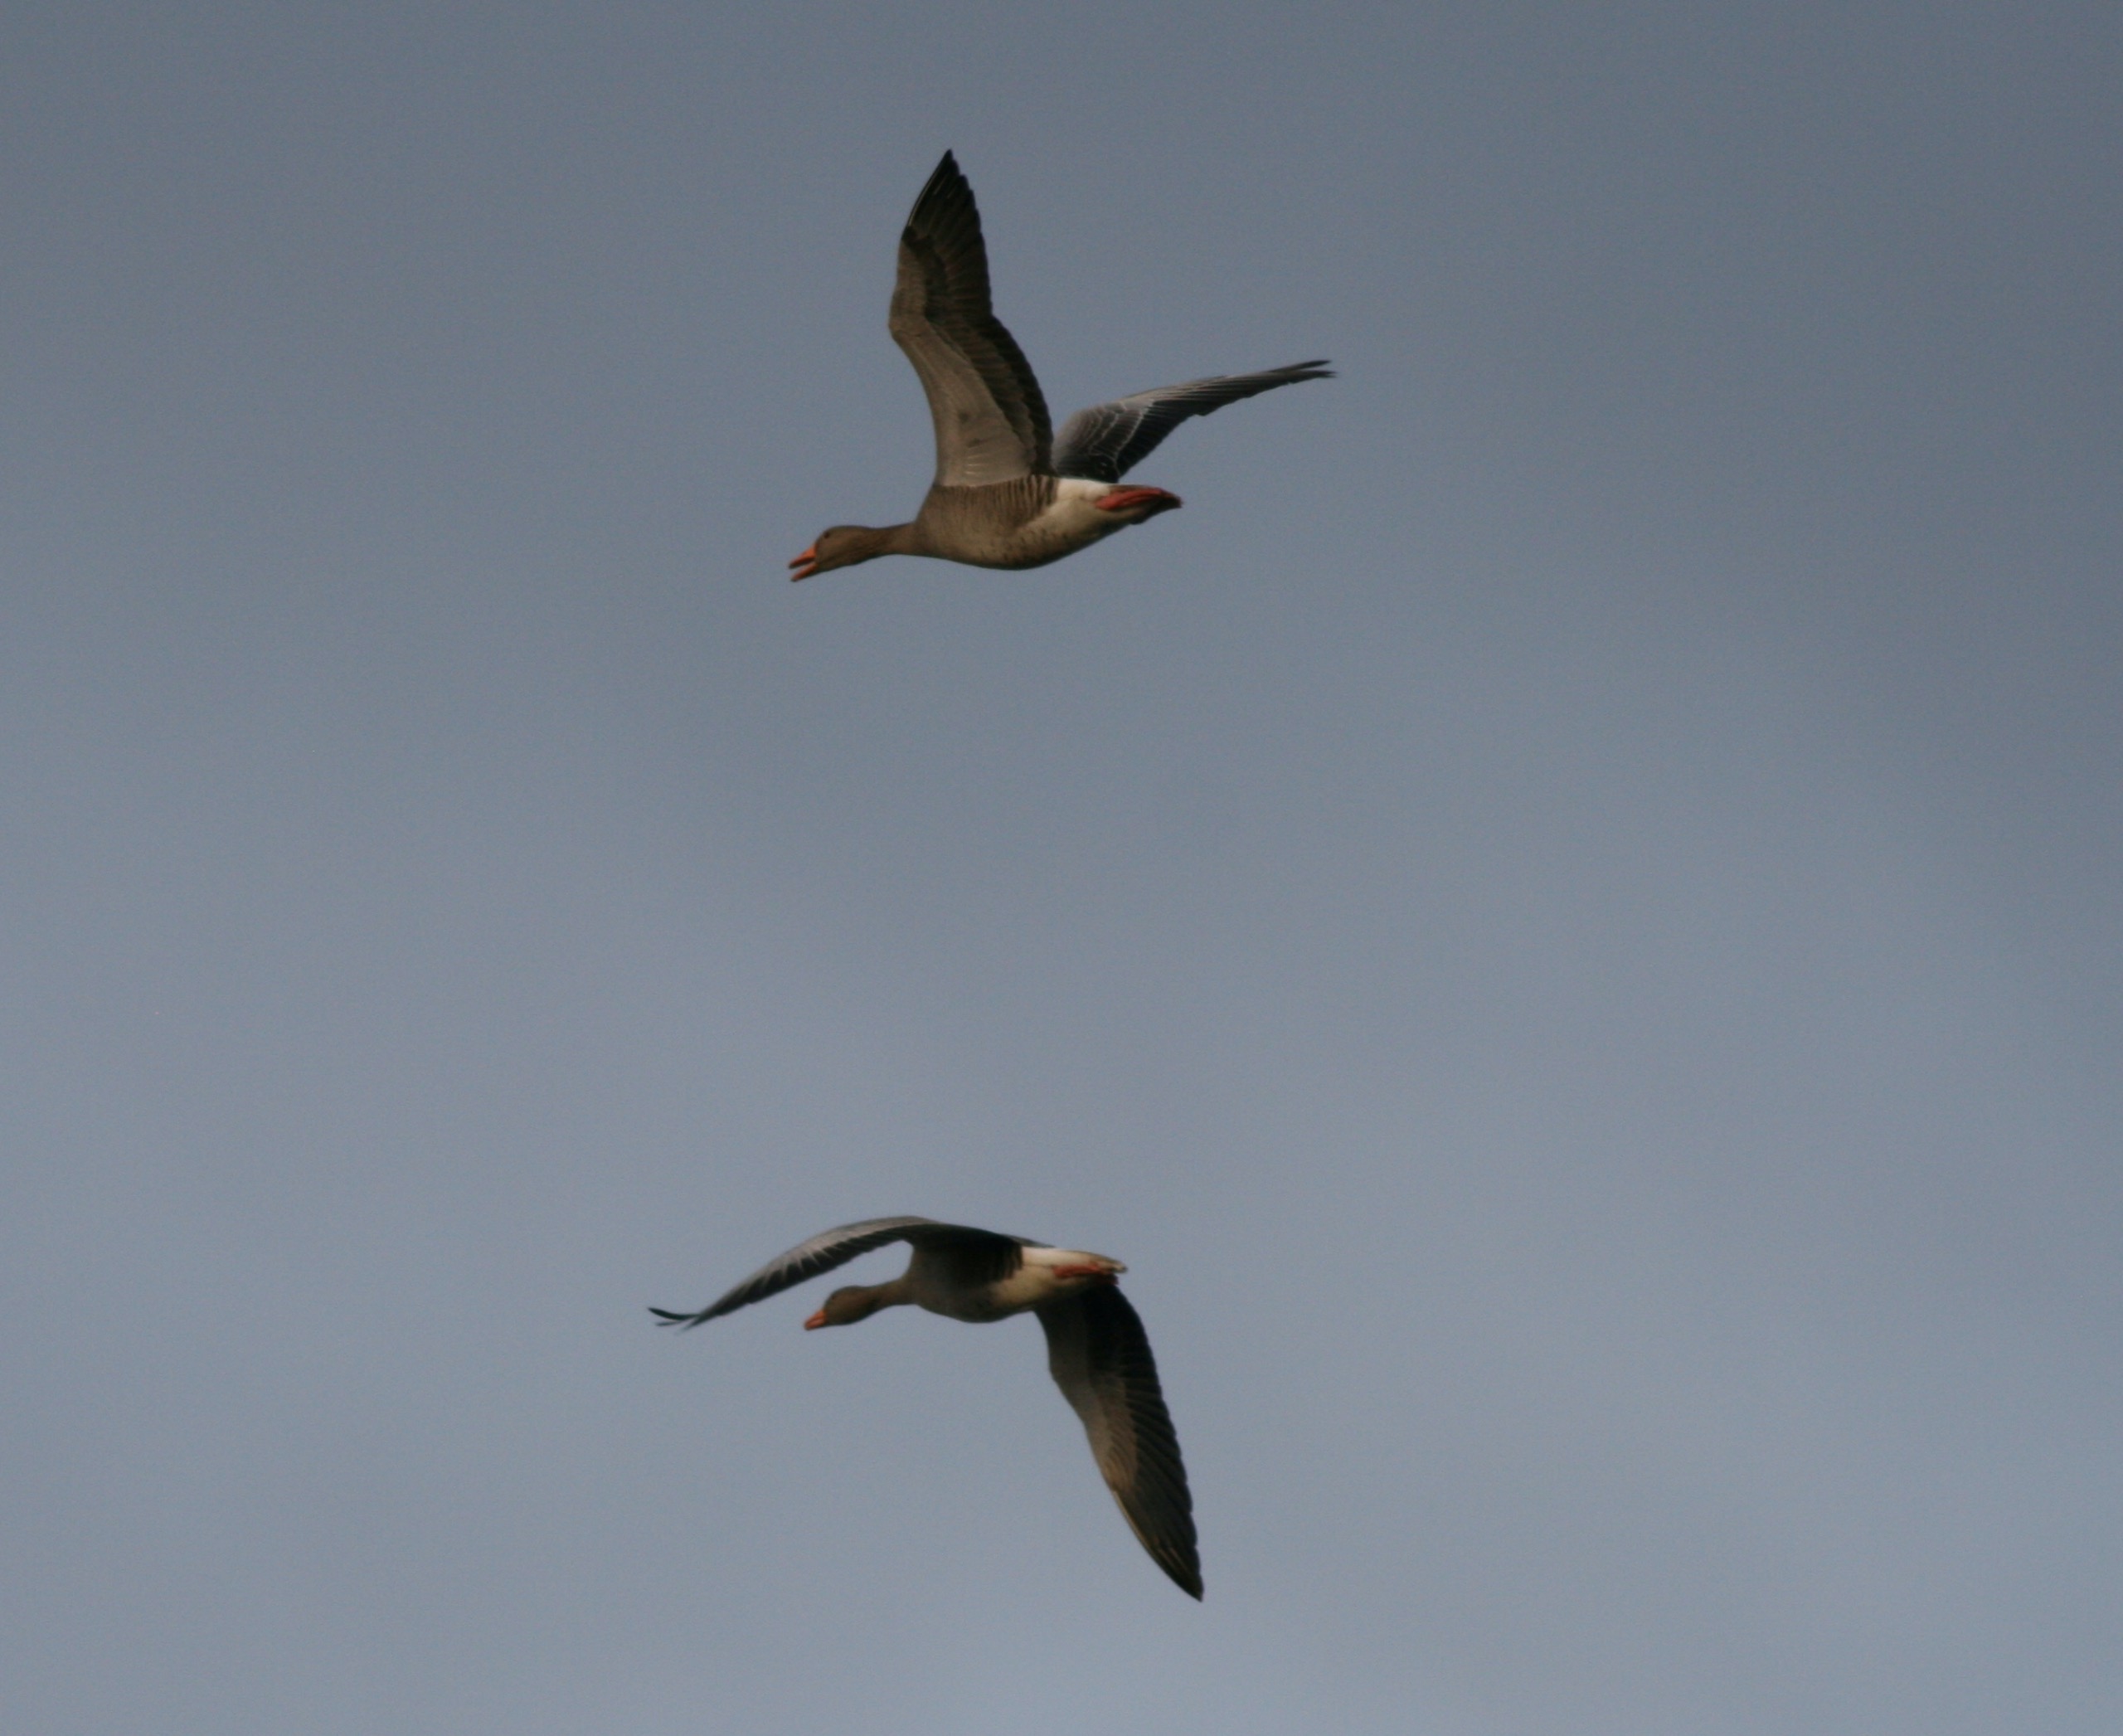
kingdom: Animalia
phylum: Chordata
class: Aves
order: Anseriformes
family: Anatidae
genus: Anser
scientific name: Anser anser
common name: Grågås
